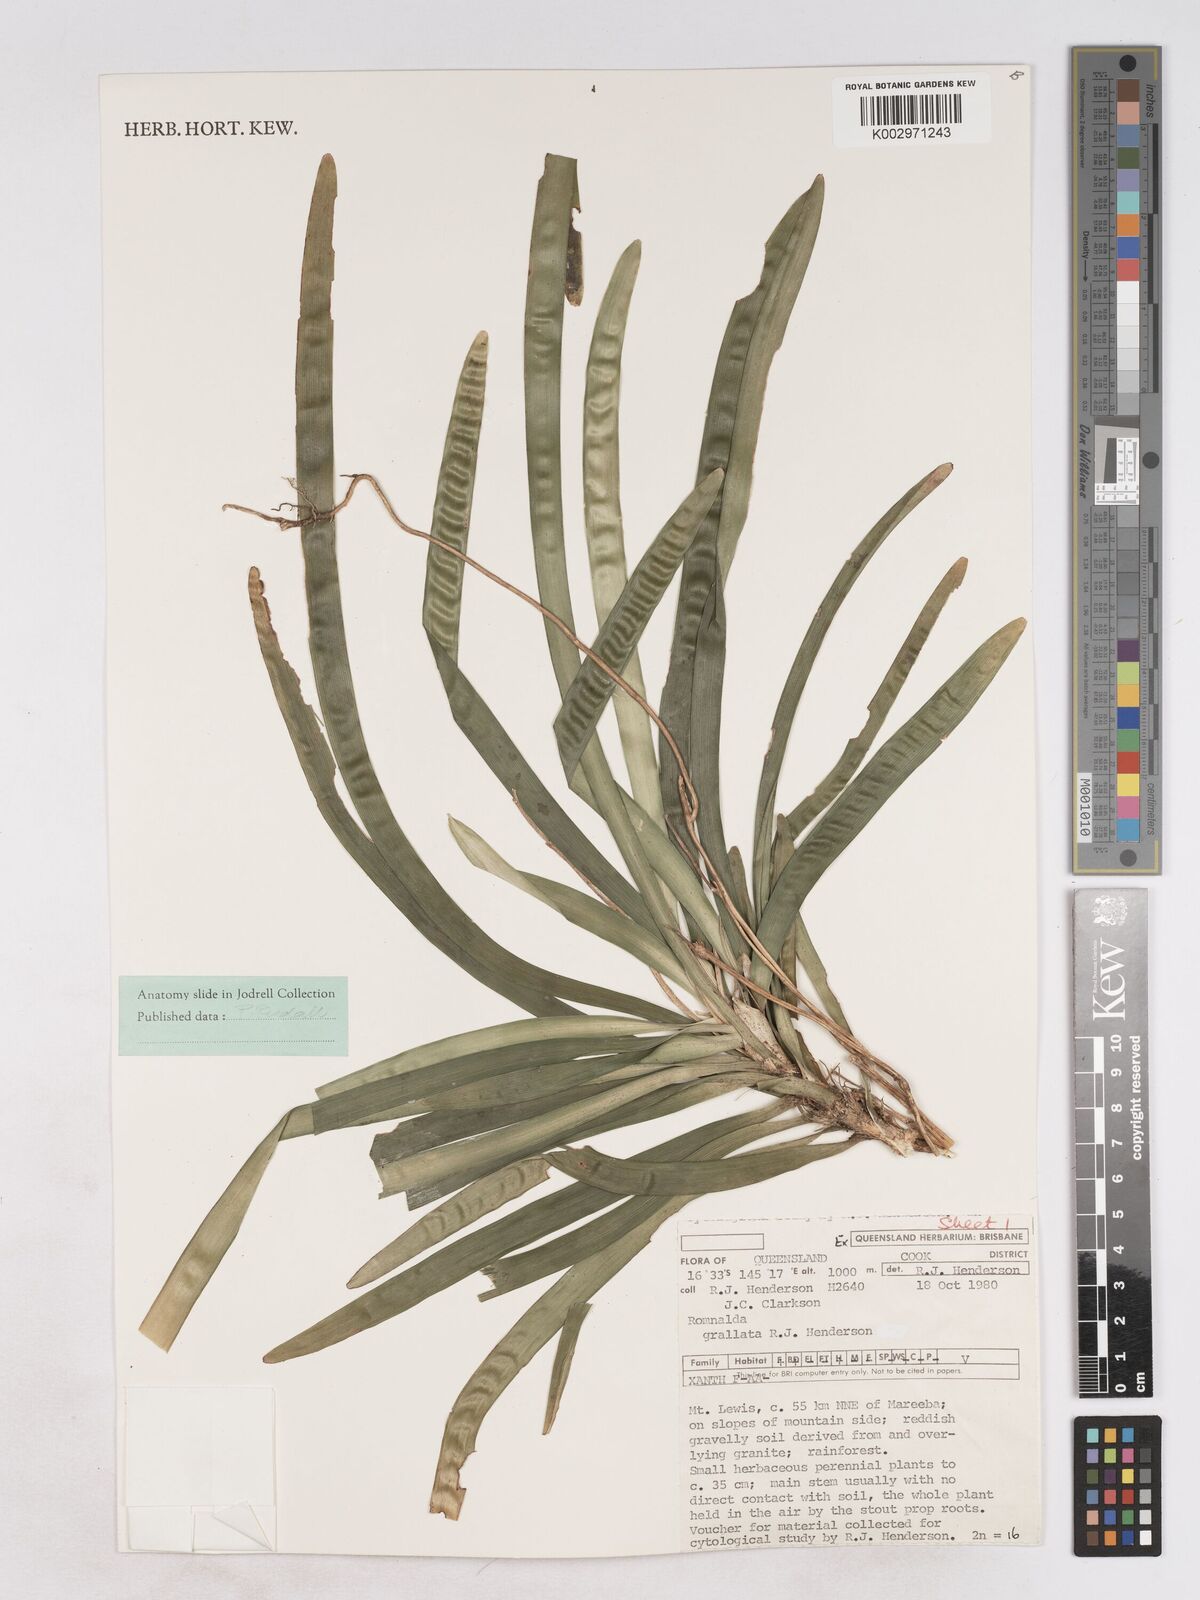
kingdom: Plantae
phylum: Tracheophyta
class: Liliopsida
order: Asparagales
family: Asparagaceae
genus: Romnalda
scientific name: Romnalda grallata
